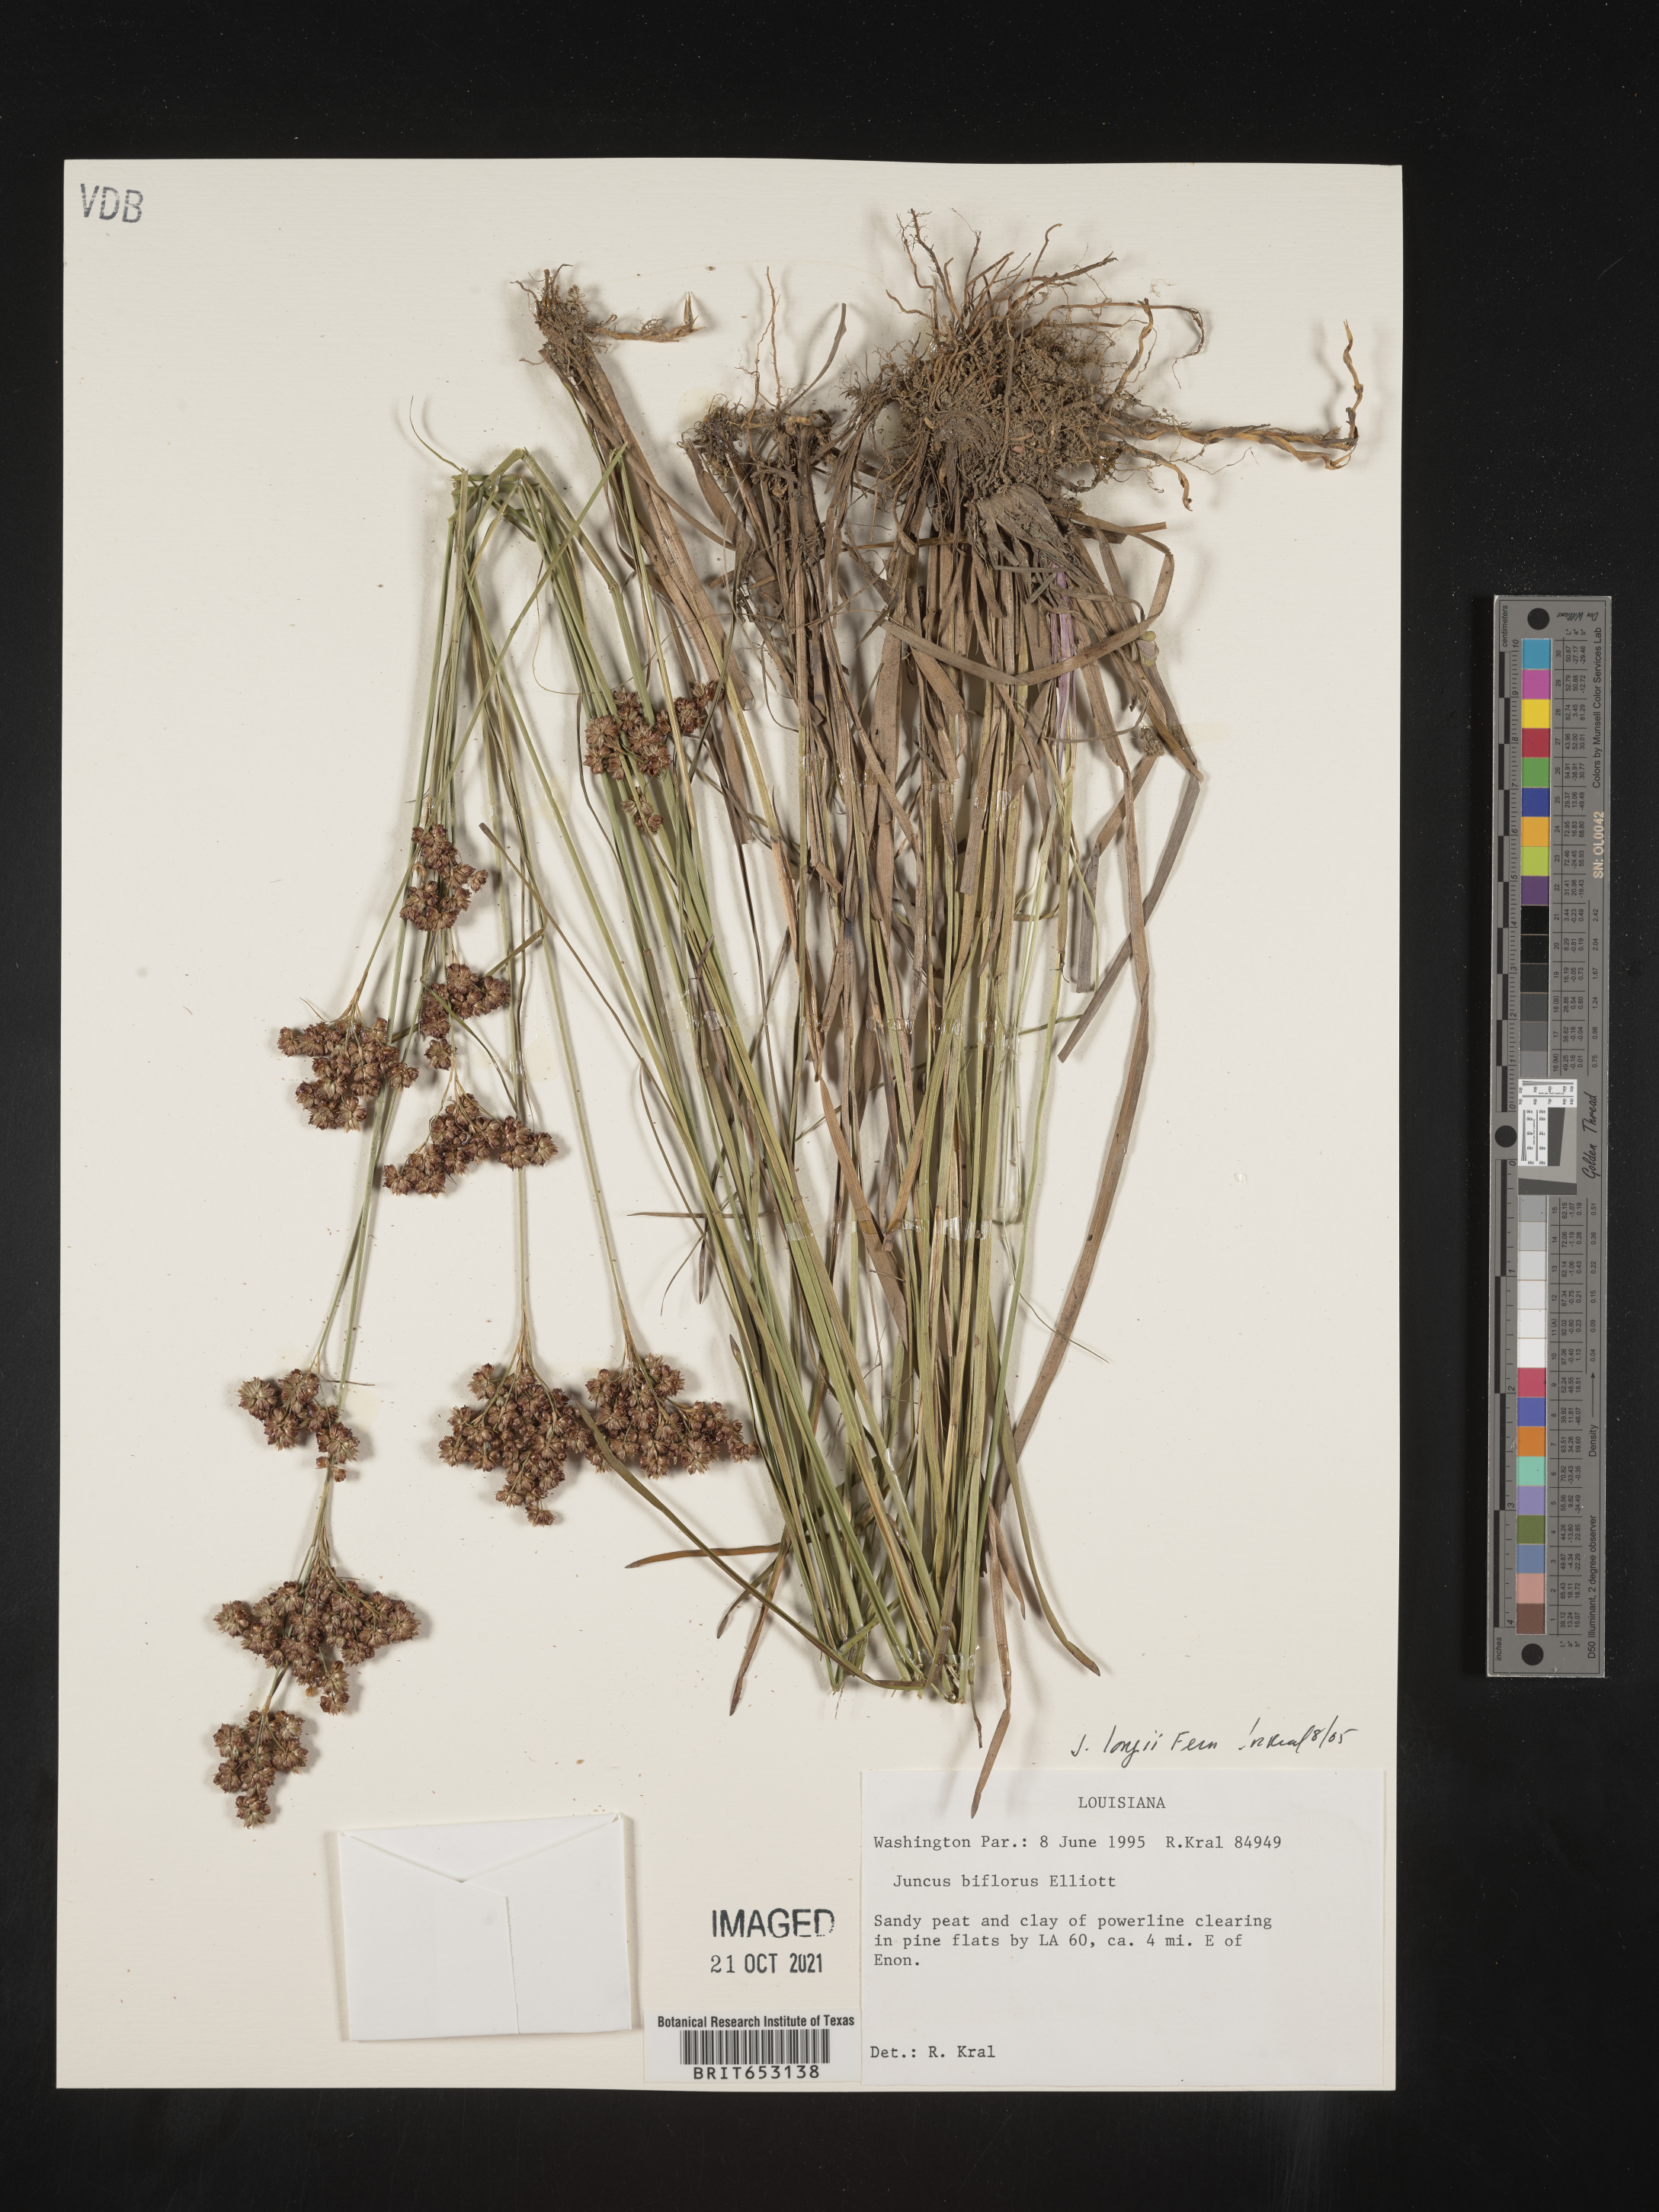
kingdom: Plantae
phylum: Tracheophyta
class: Liliopsida
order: Poales
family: Juncaceae
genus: Juncus
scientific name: Juncus longii
